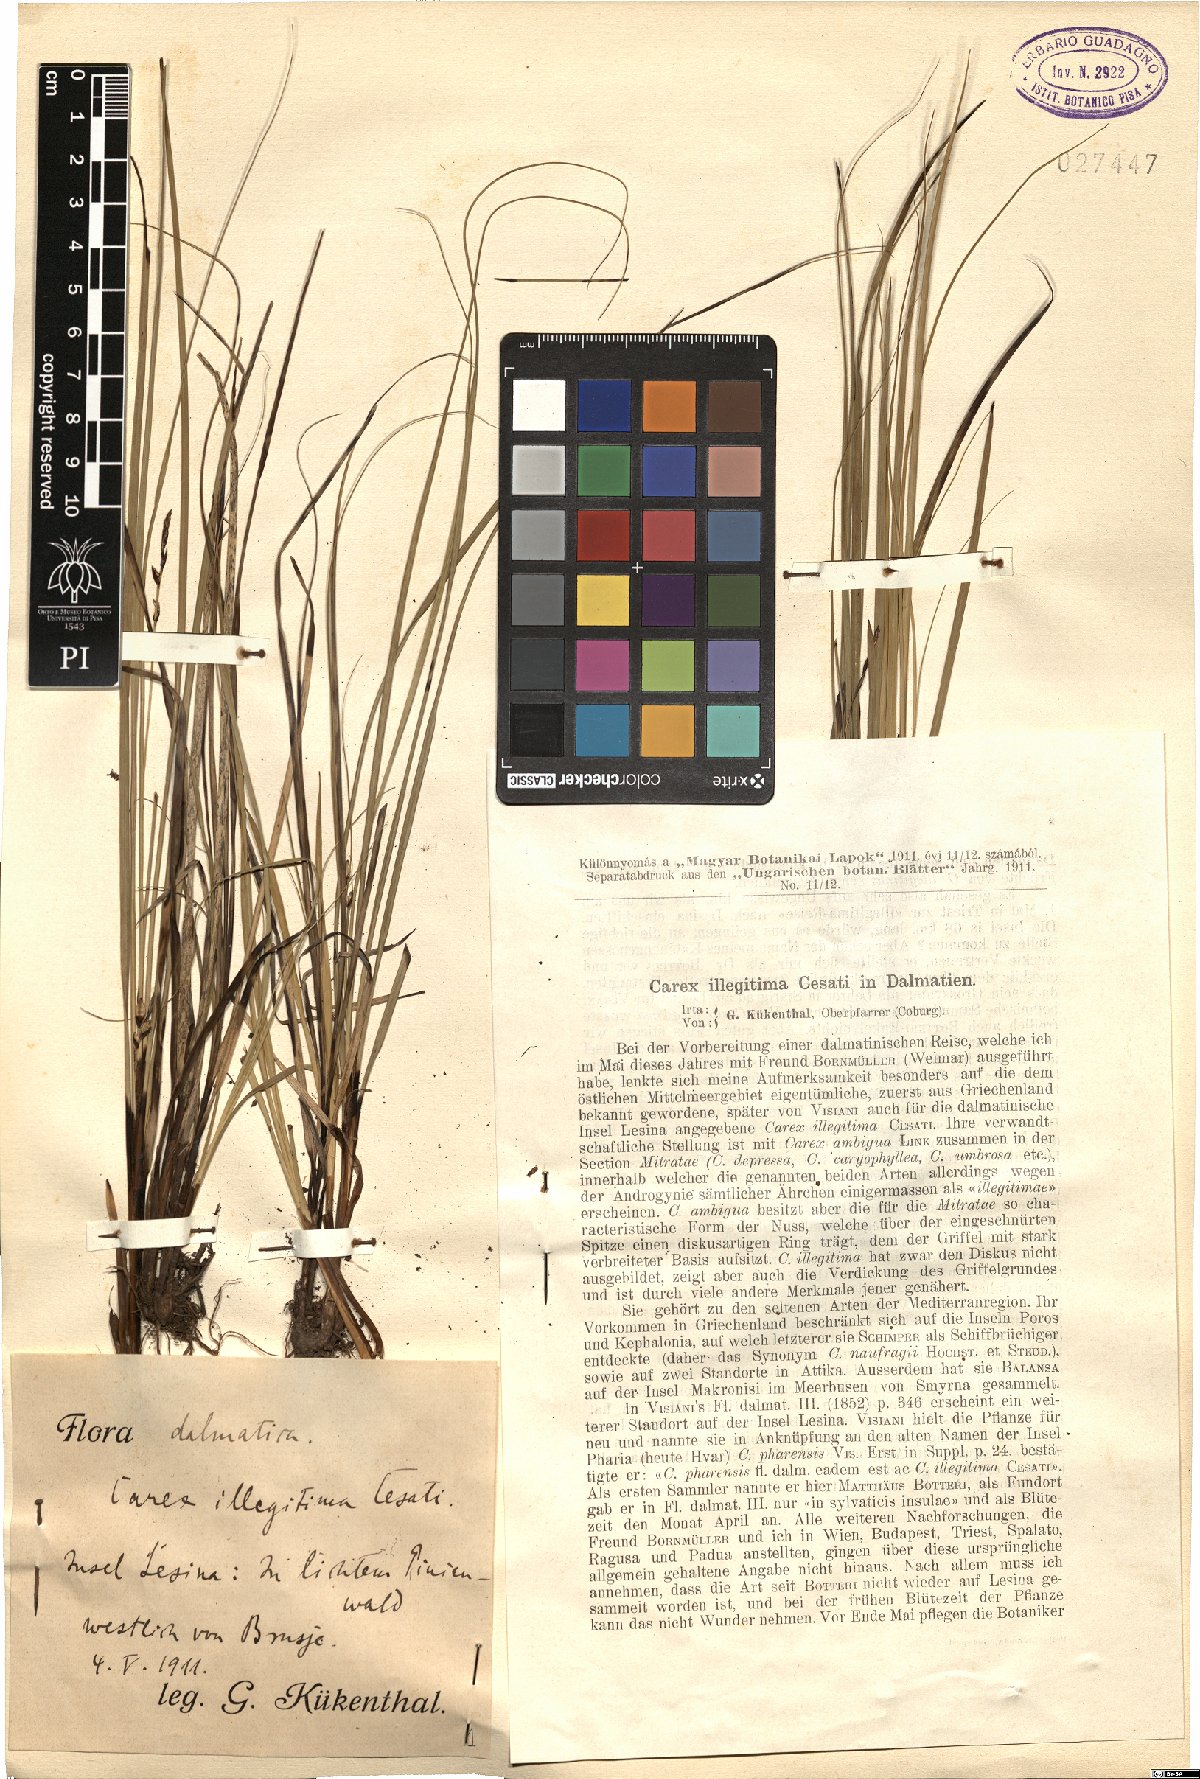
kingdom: Plantae
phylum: Tracheophyta
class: Liliopsida
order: Poales
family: Cyperaceae
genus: Carex
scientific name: Carex illegitima
